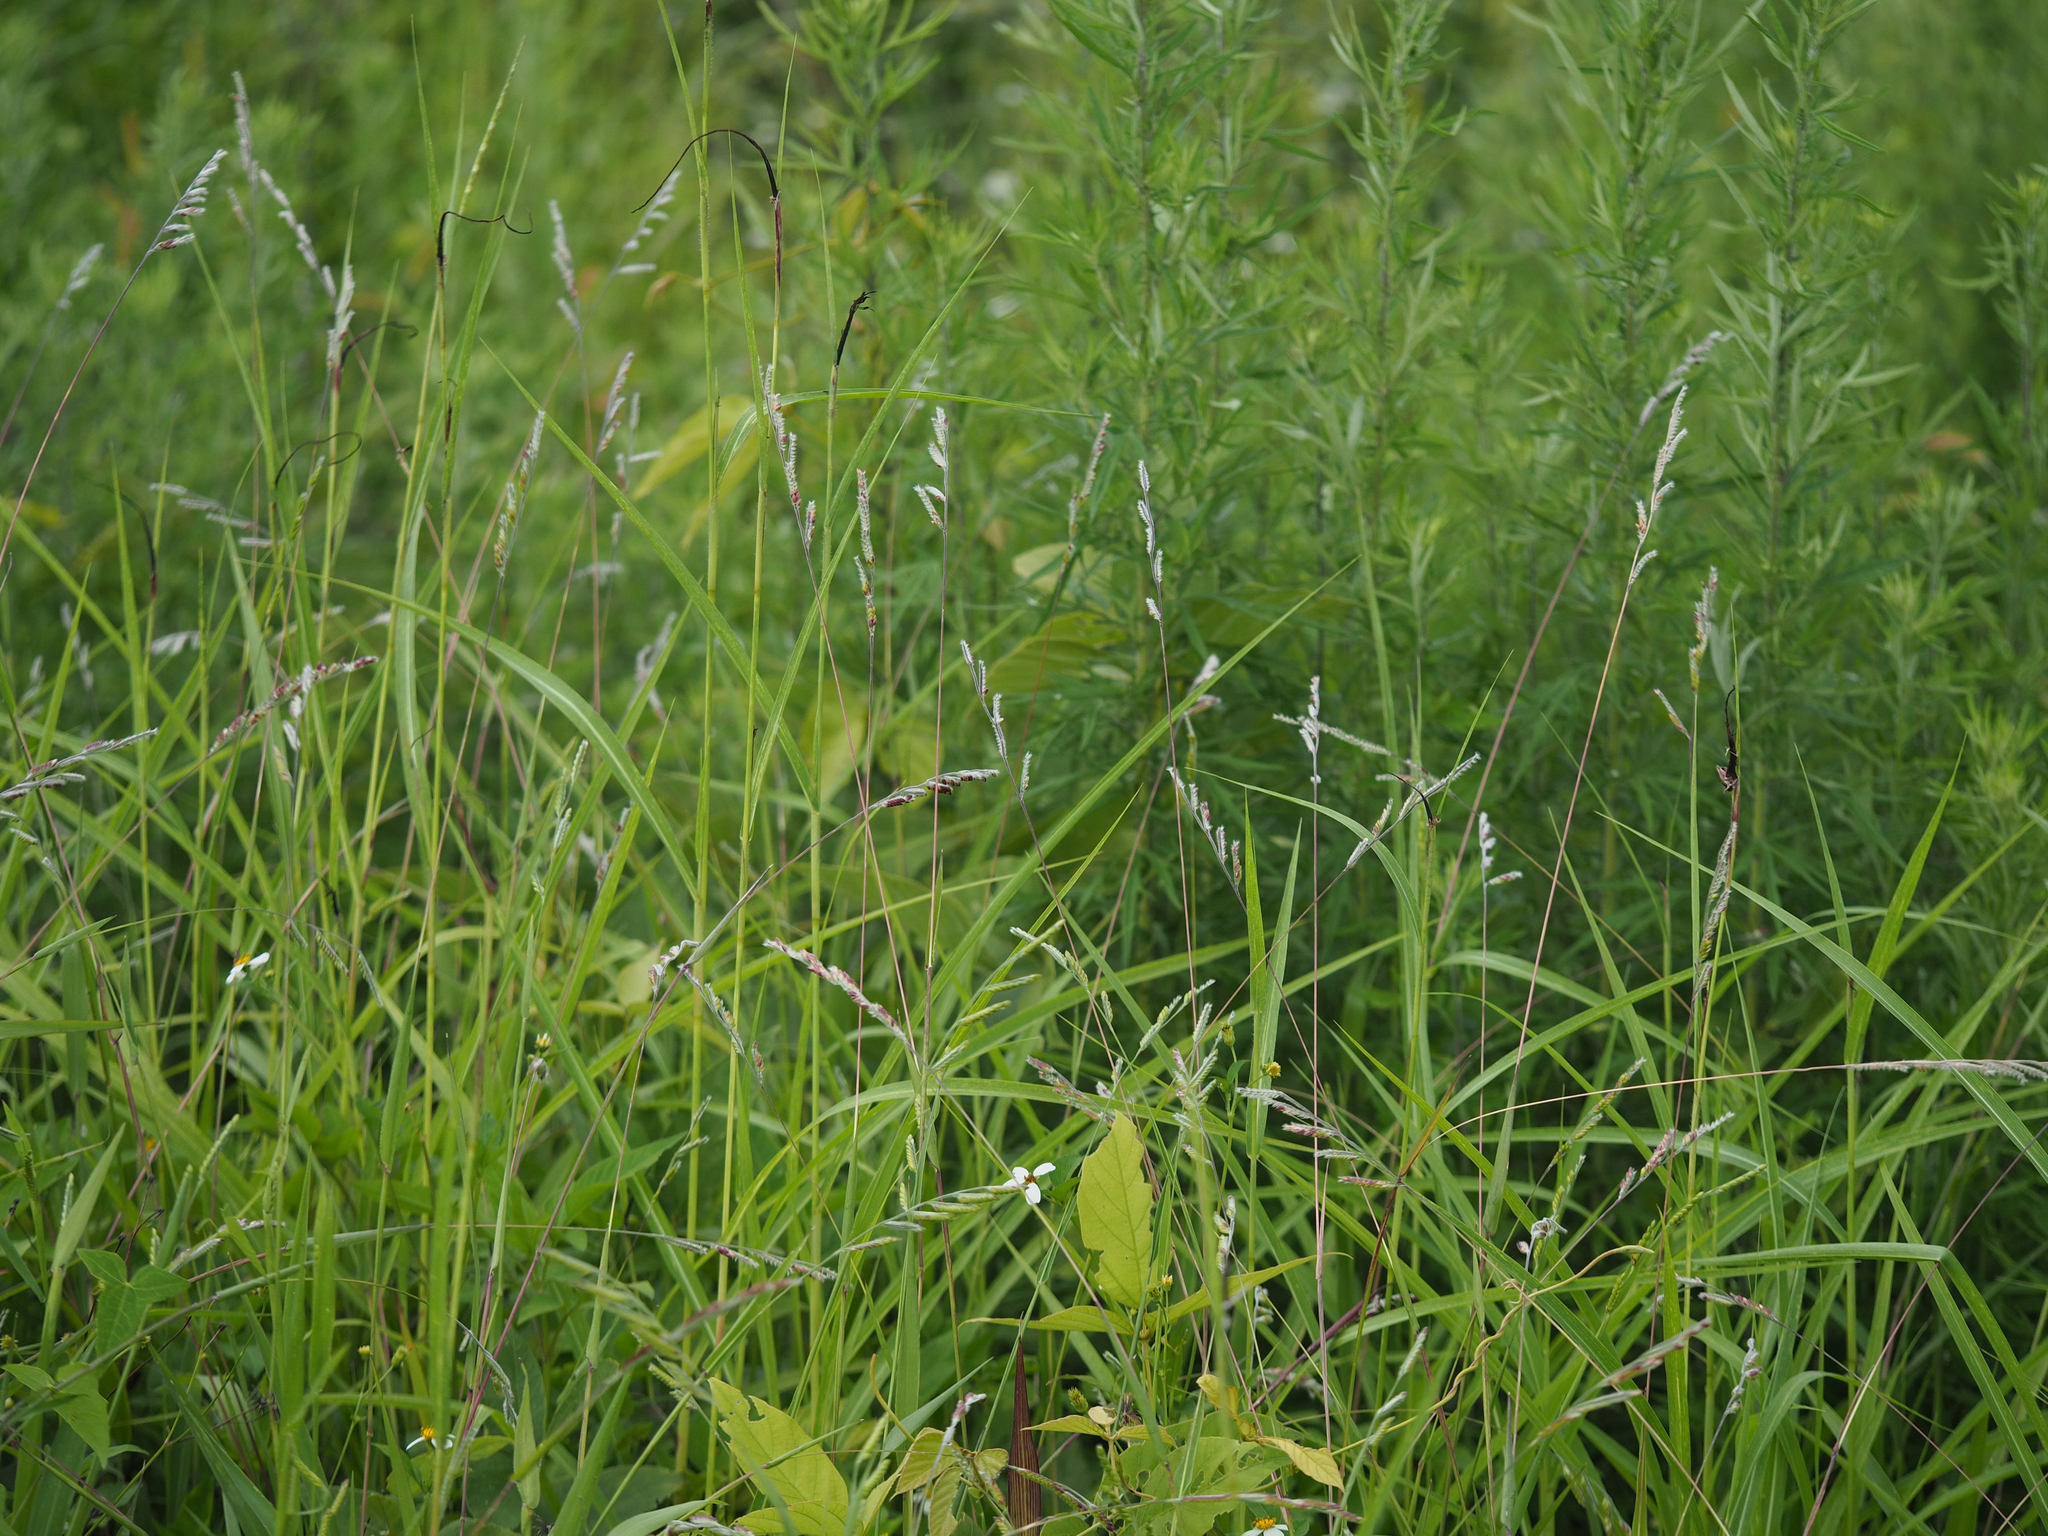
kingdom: Plantae
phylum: Tracheophyta
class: Liliopsida
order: Poales
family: Poaceae
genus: Eriochloa
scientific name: Eriochloa villosa
